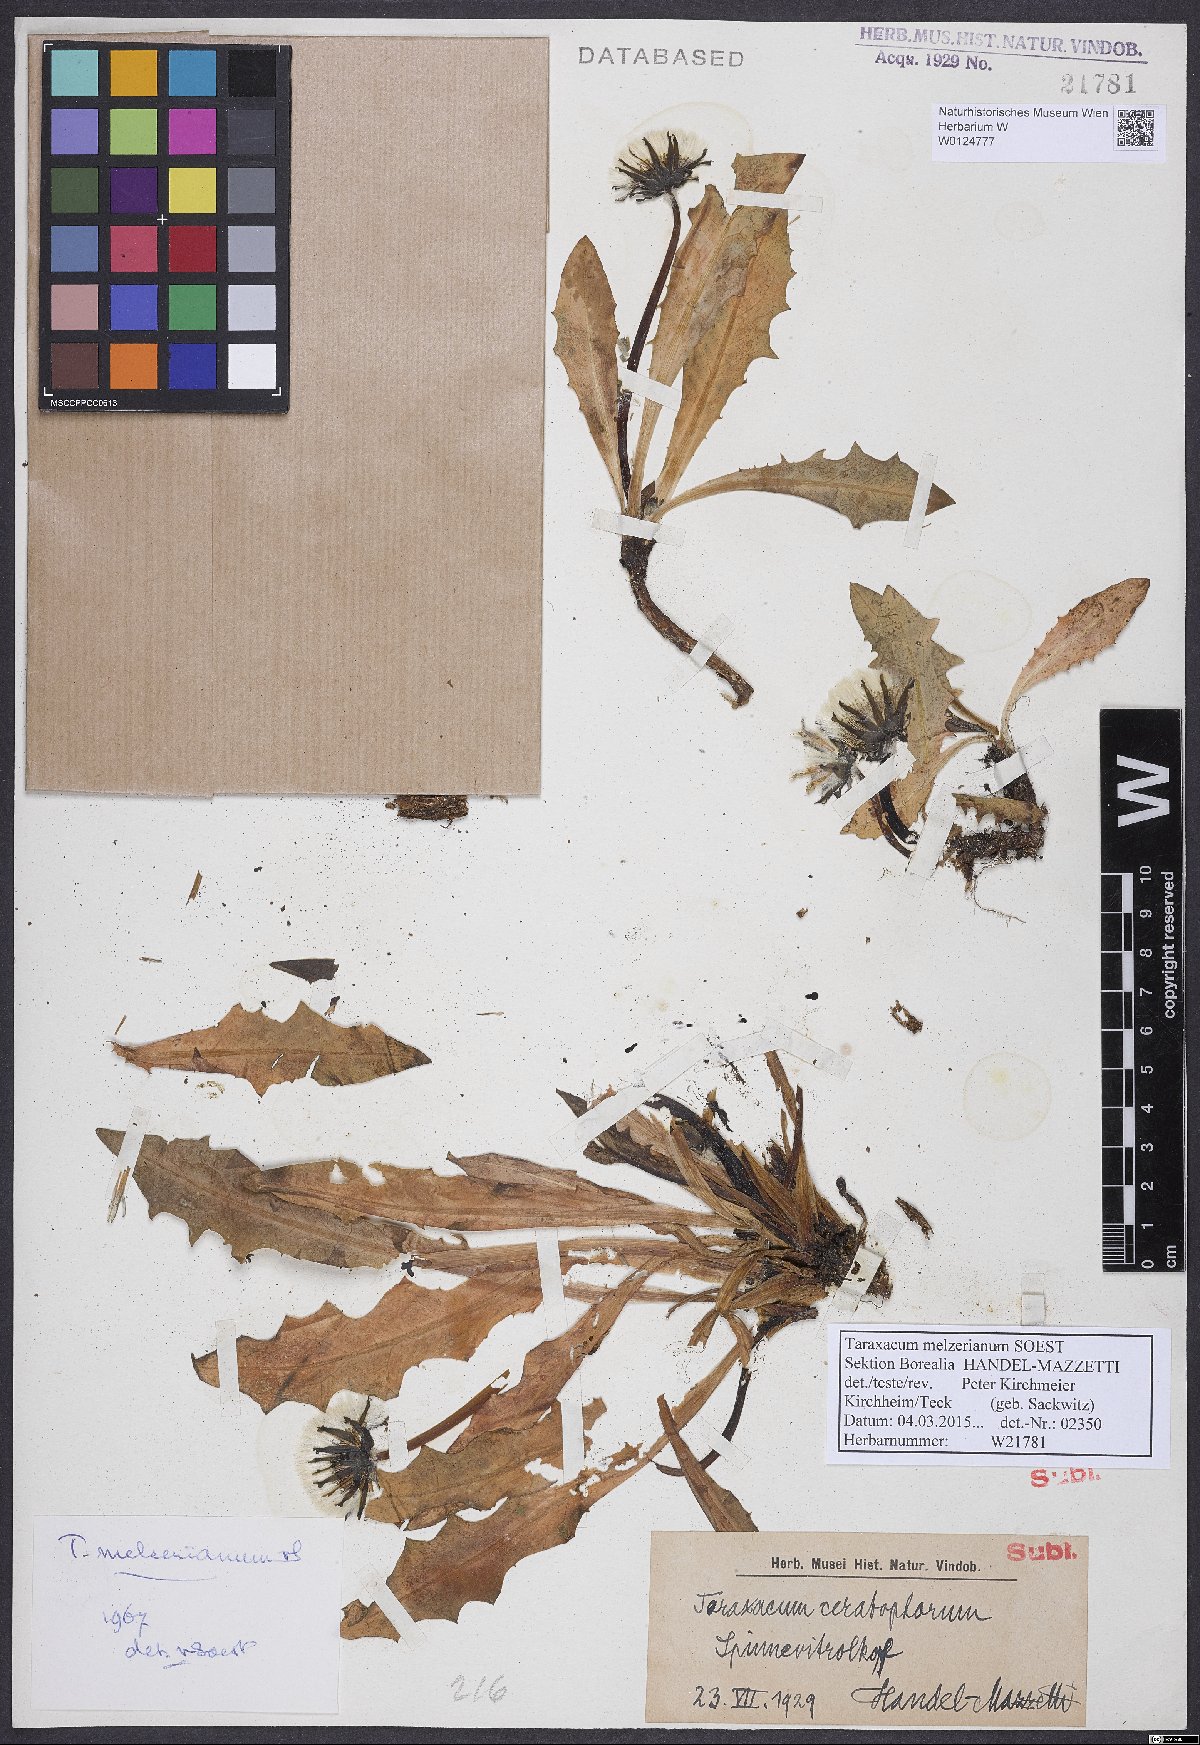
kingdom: Plantae
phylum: Tracheophyta
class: Magnoliopsida
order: Asterales
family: Asteraceae
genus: Taraxacum
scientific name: Taraxacum melzerianum
